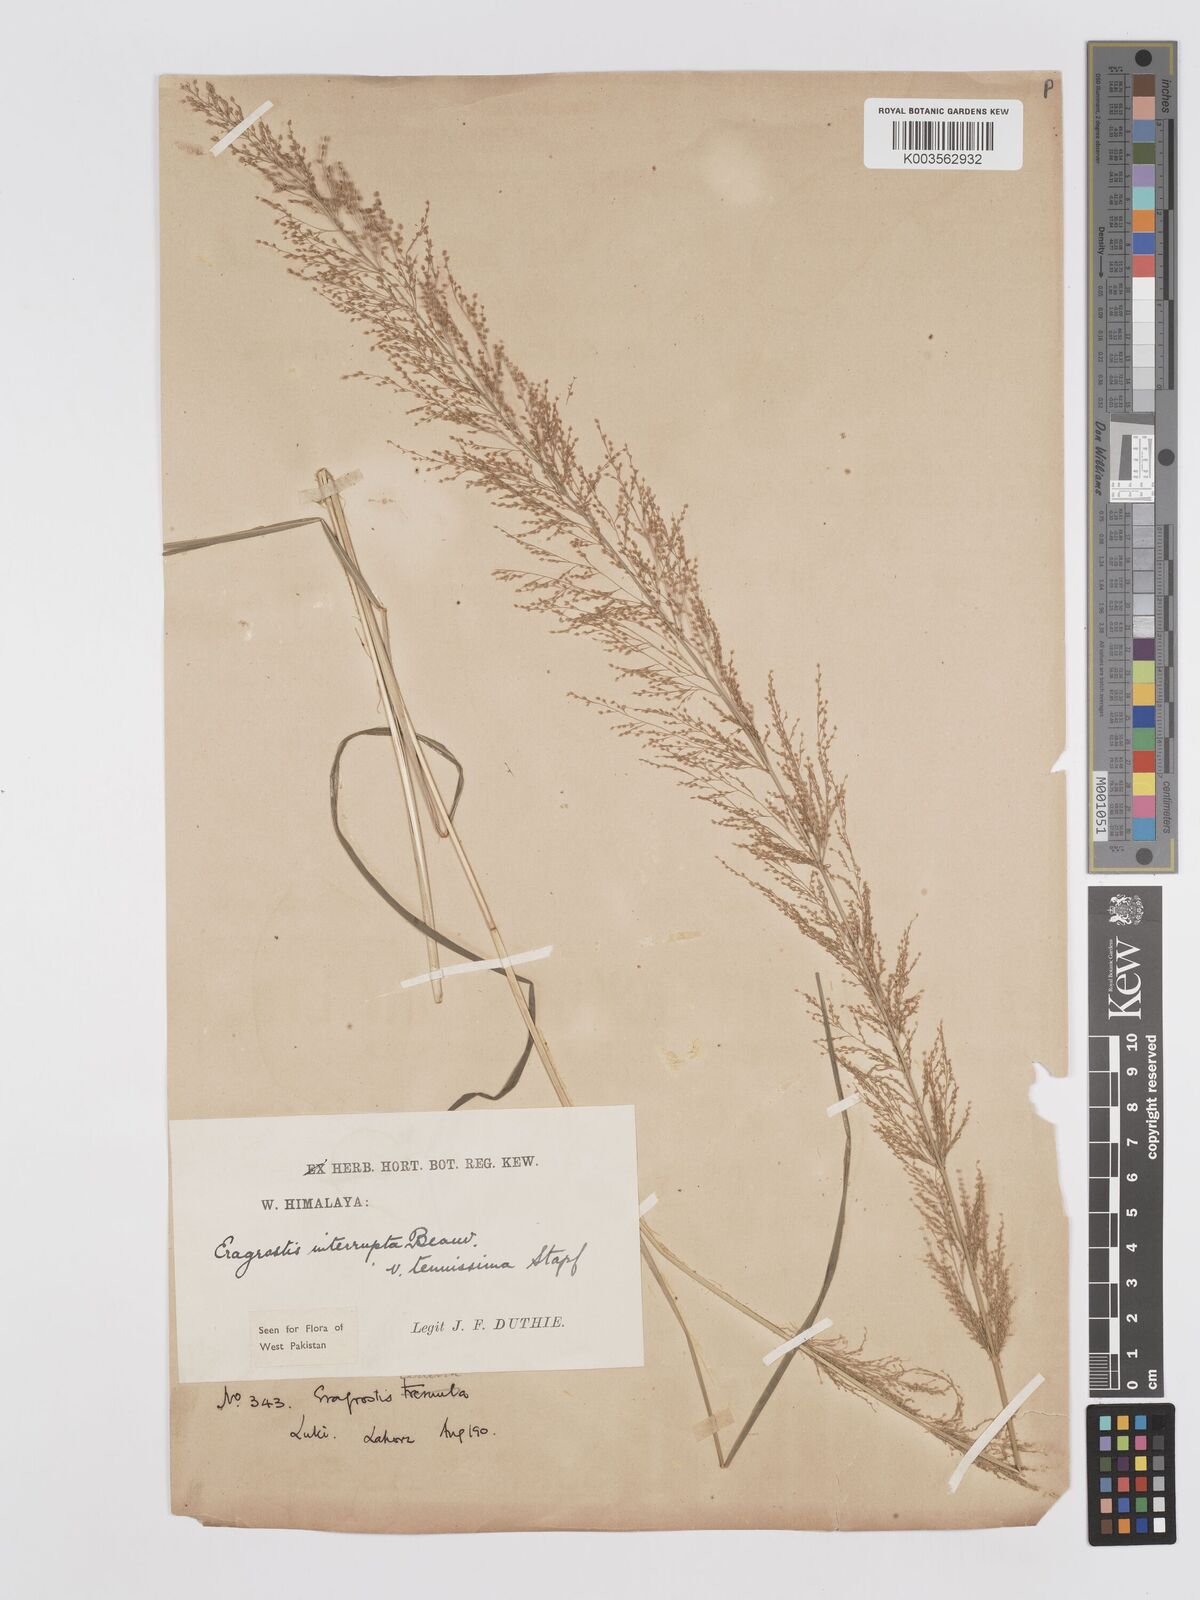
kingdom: Plantae
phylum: Tracheophyta
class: Liliopsida
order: Poales
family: Poaceae
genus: Eragrostis
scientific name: Eragrostis japonica
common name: Pond lovegrass
